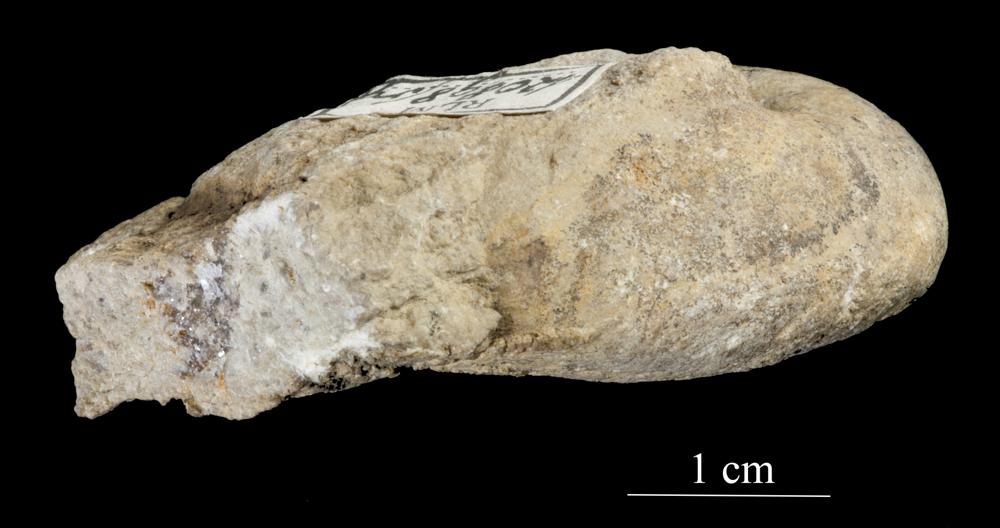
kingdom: Animalia
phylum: Mollusca
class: Gastropoda
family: Sinuitidae
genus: Sinuites
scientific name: Sinuites bilobatus
